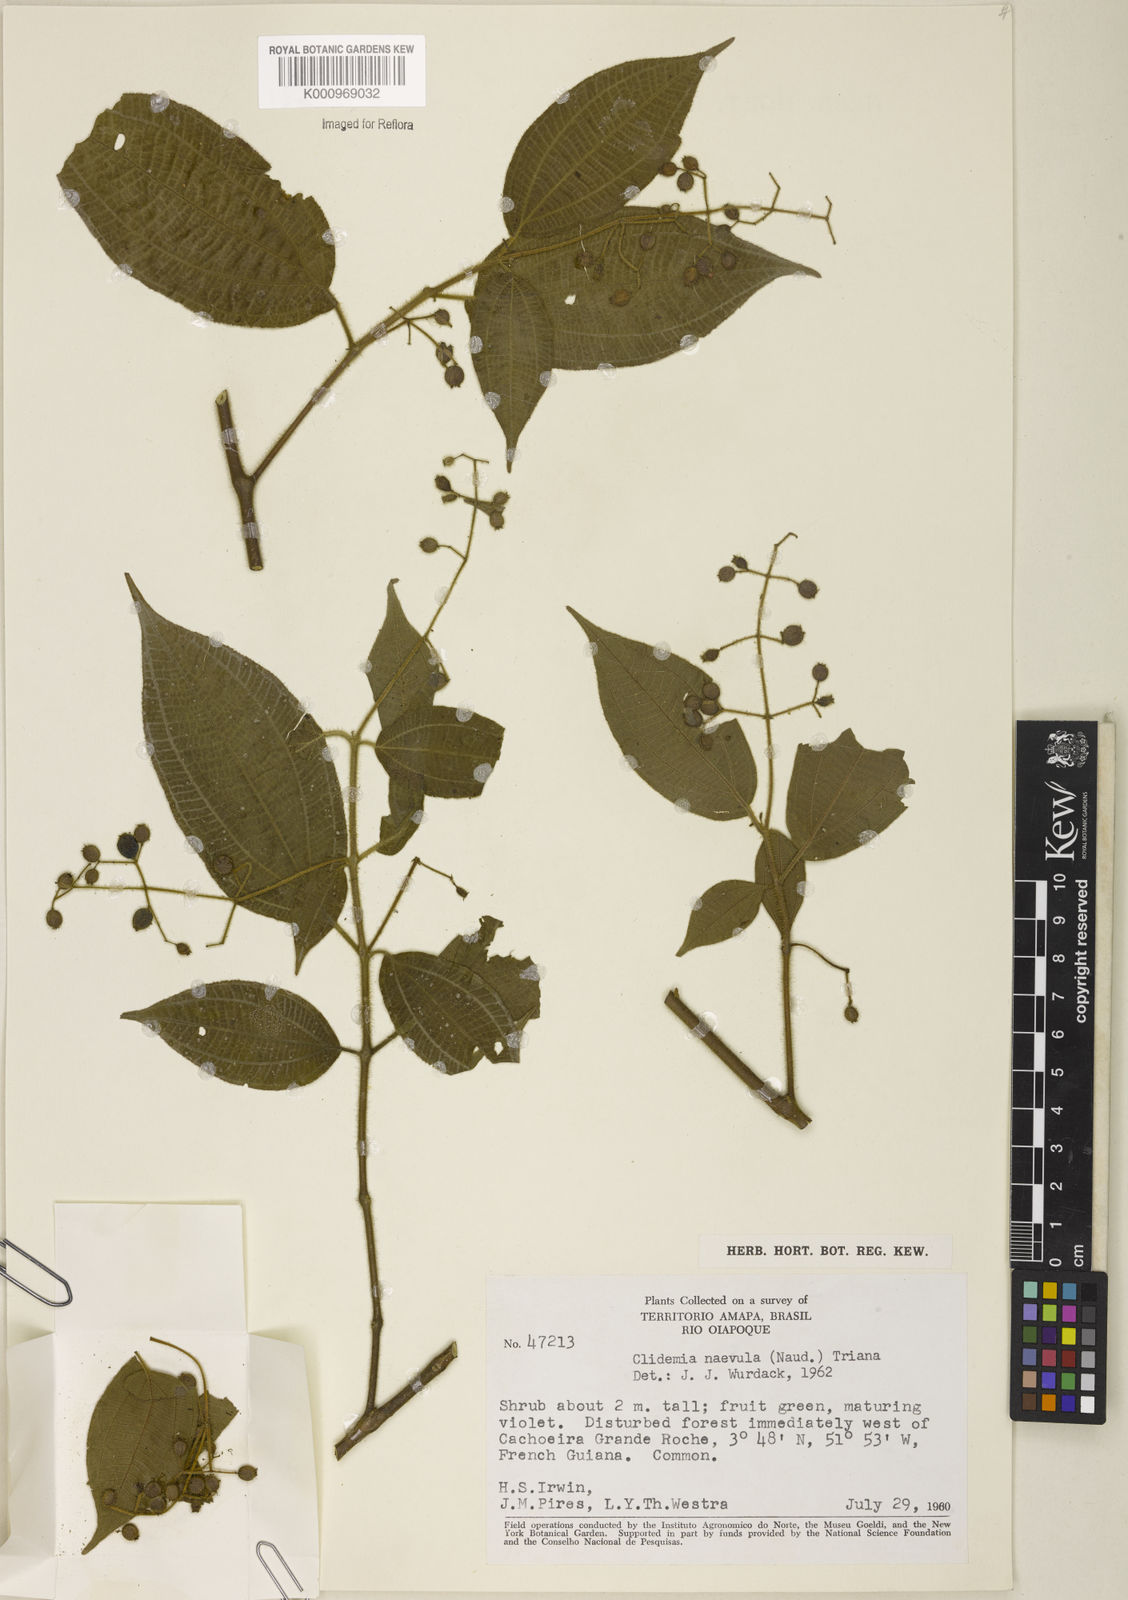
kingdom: Plantae
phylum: Tracheophyta
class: Magnoliopsida
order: Myrtales
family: Melastomataceae
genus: Miconia
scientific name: Miconia heteroclita
